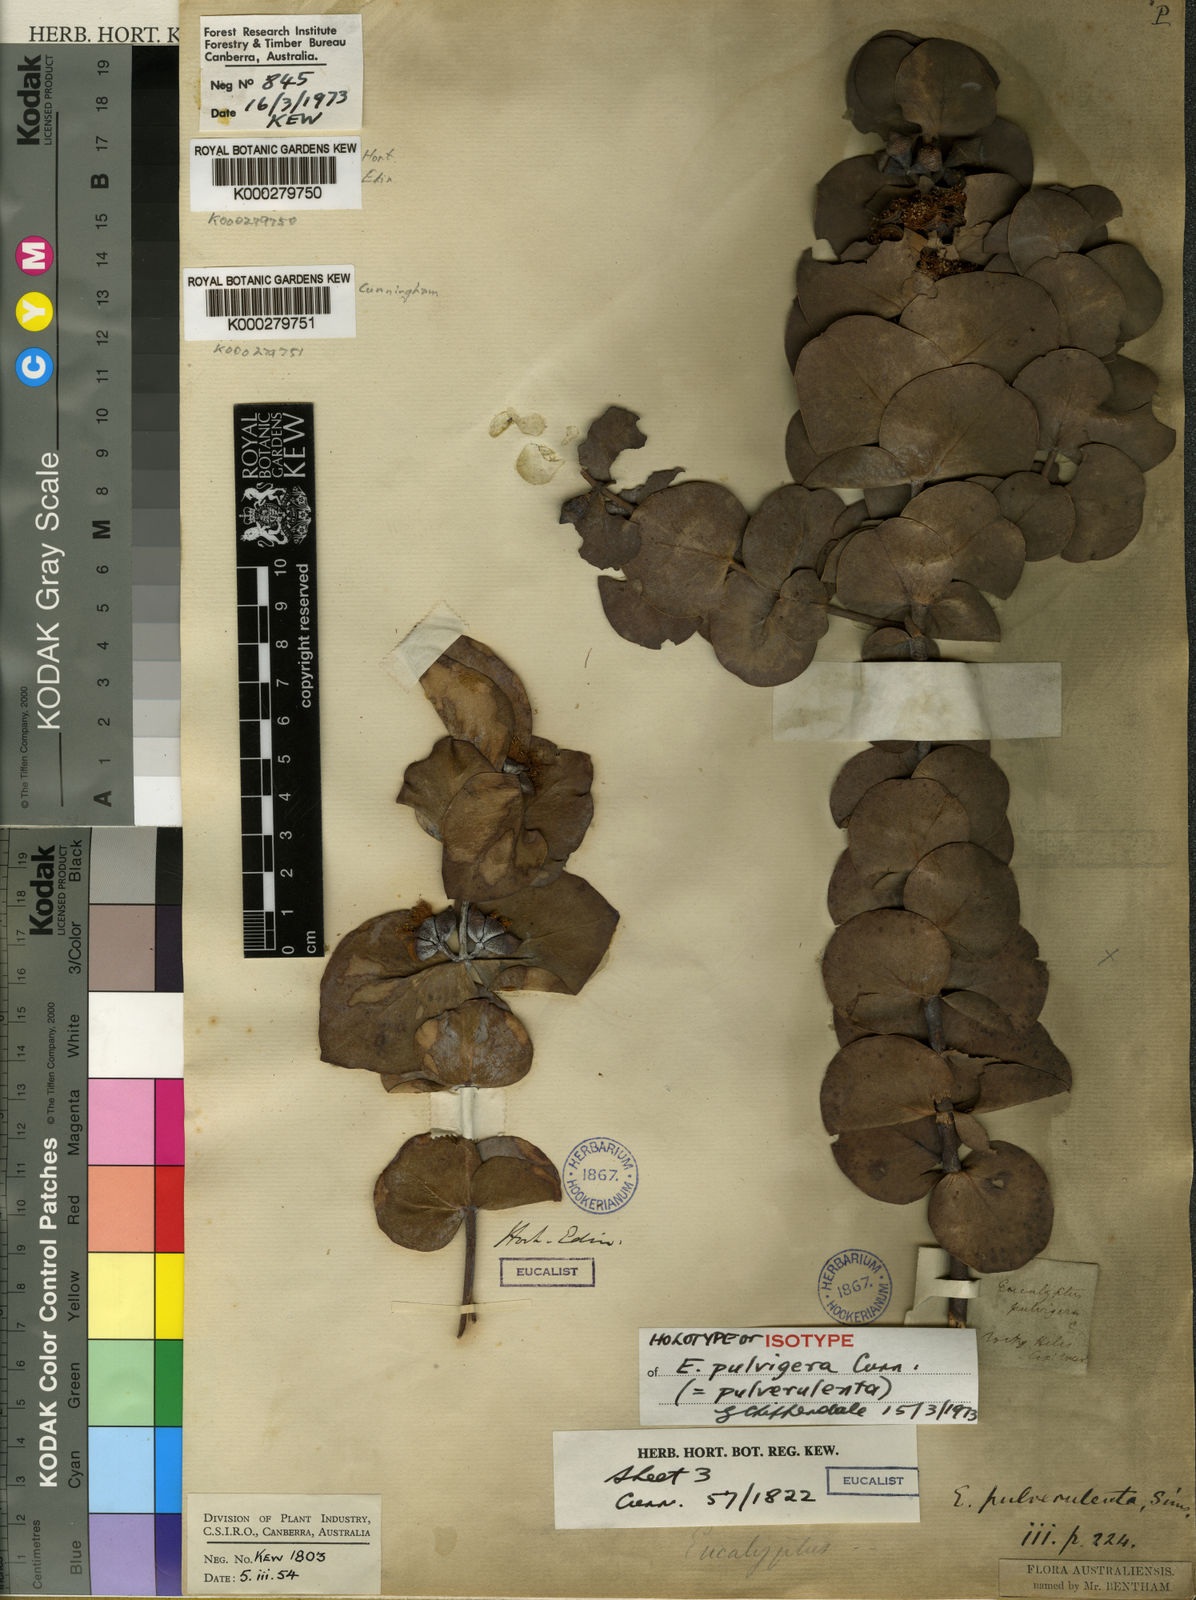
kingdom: Plantae
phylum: Tracheophyta
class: Magnoliopsida
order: Myrtales
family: Myrtaceae
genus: Eucalyptus
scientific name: Eucalyptus pulverulenta
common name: Silverleaf mountain gum
